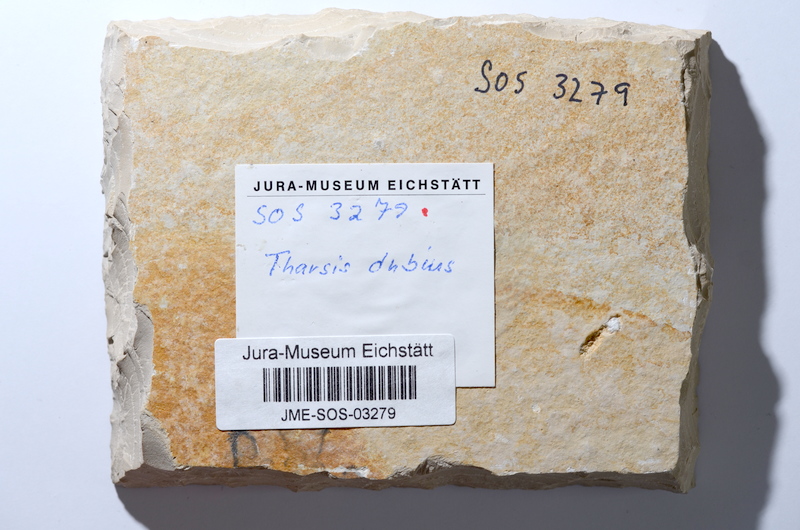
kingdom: Animalia
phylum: Chordata
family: Ascalaboidae
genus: Tharsis
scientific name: Tharsis dubius
